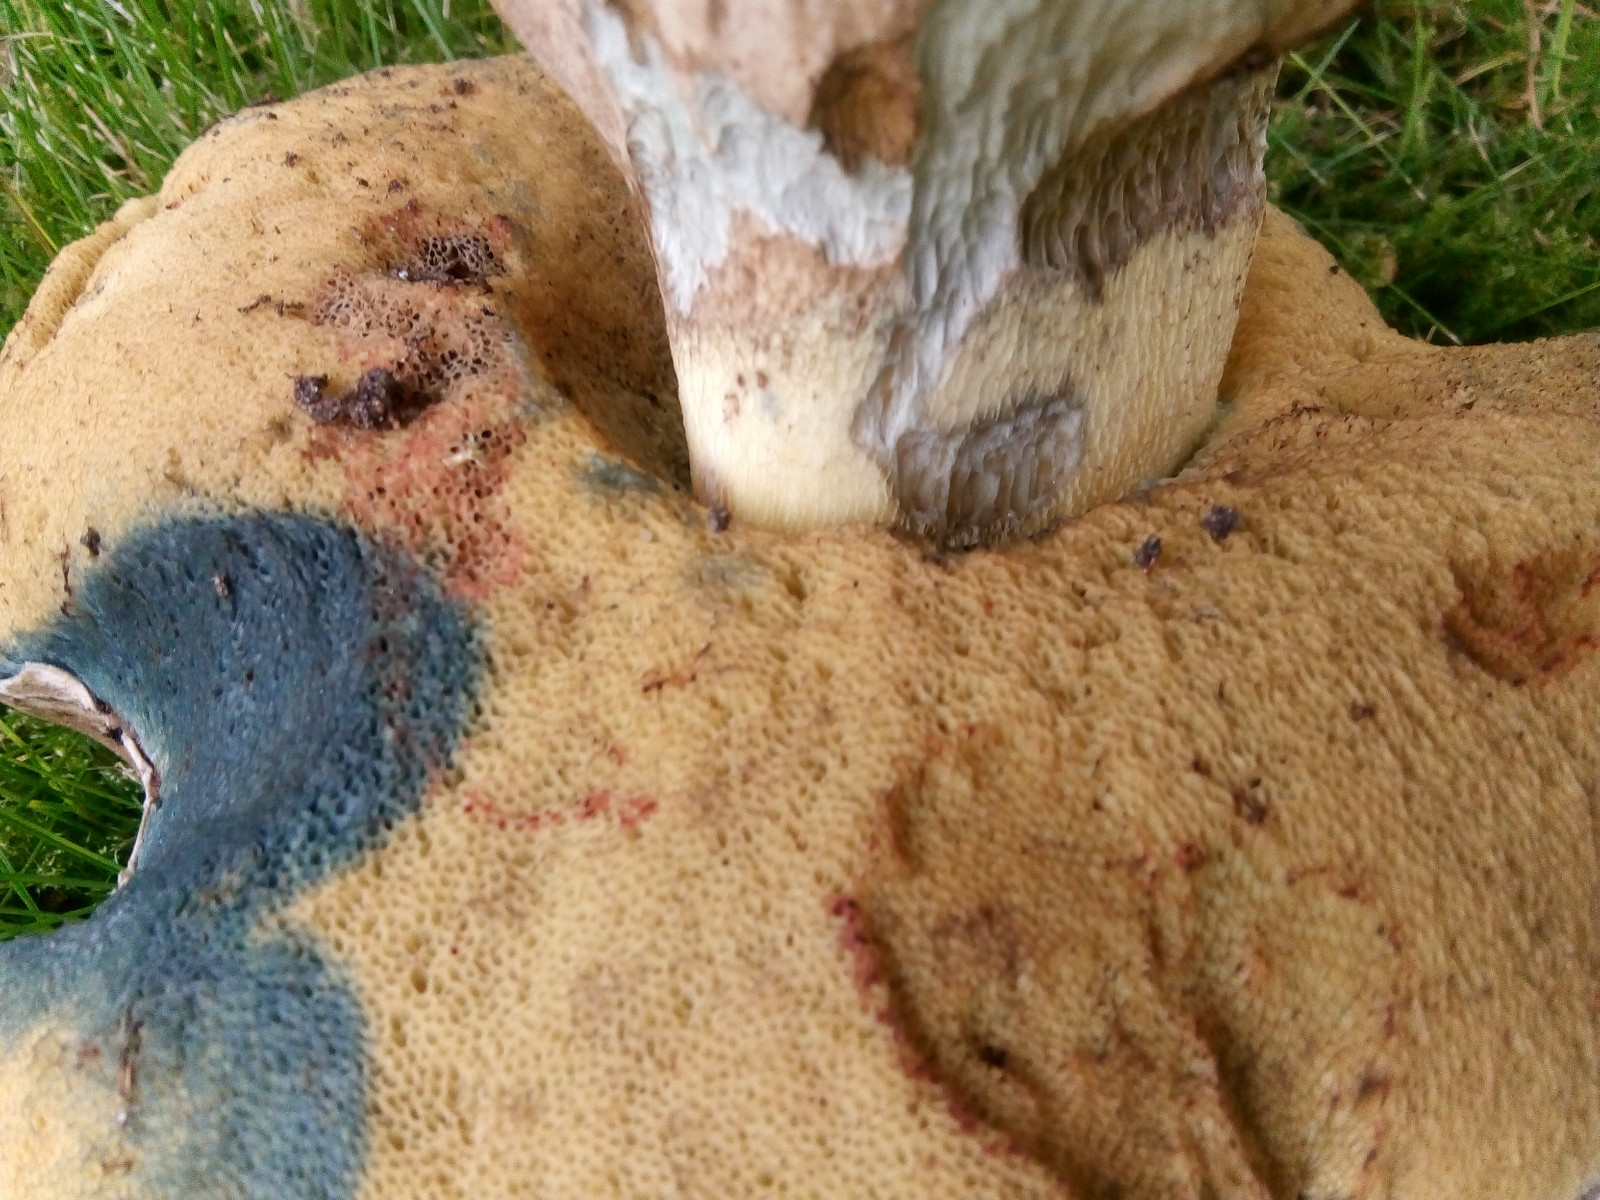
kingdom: Fungi
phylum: Basidiomycota
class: Agaricomycetes
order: Boletales
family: Boletaceae
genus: Caloboletus
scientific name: Caloboletus radicans
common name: rod-rørhat
